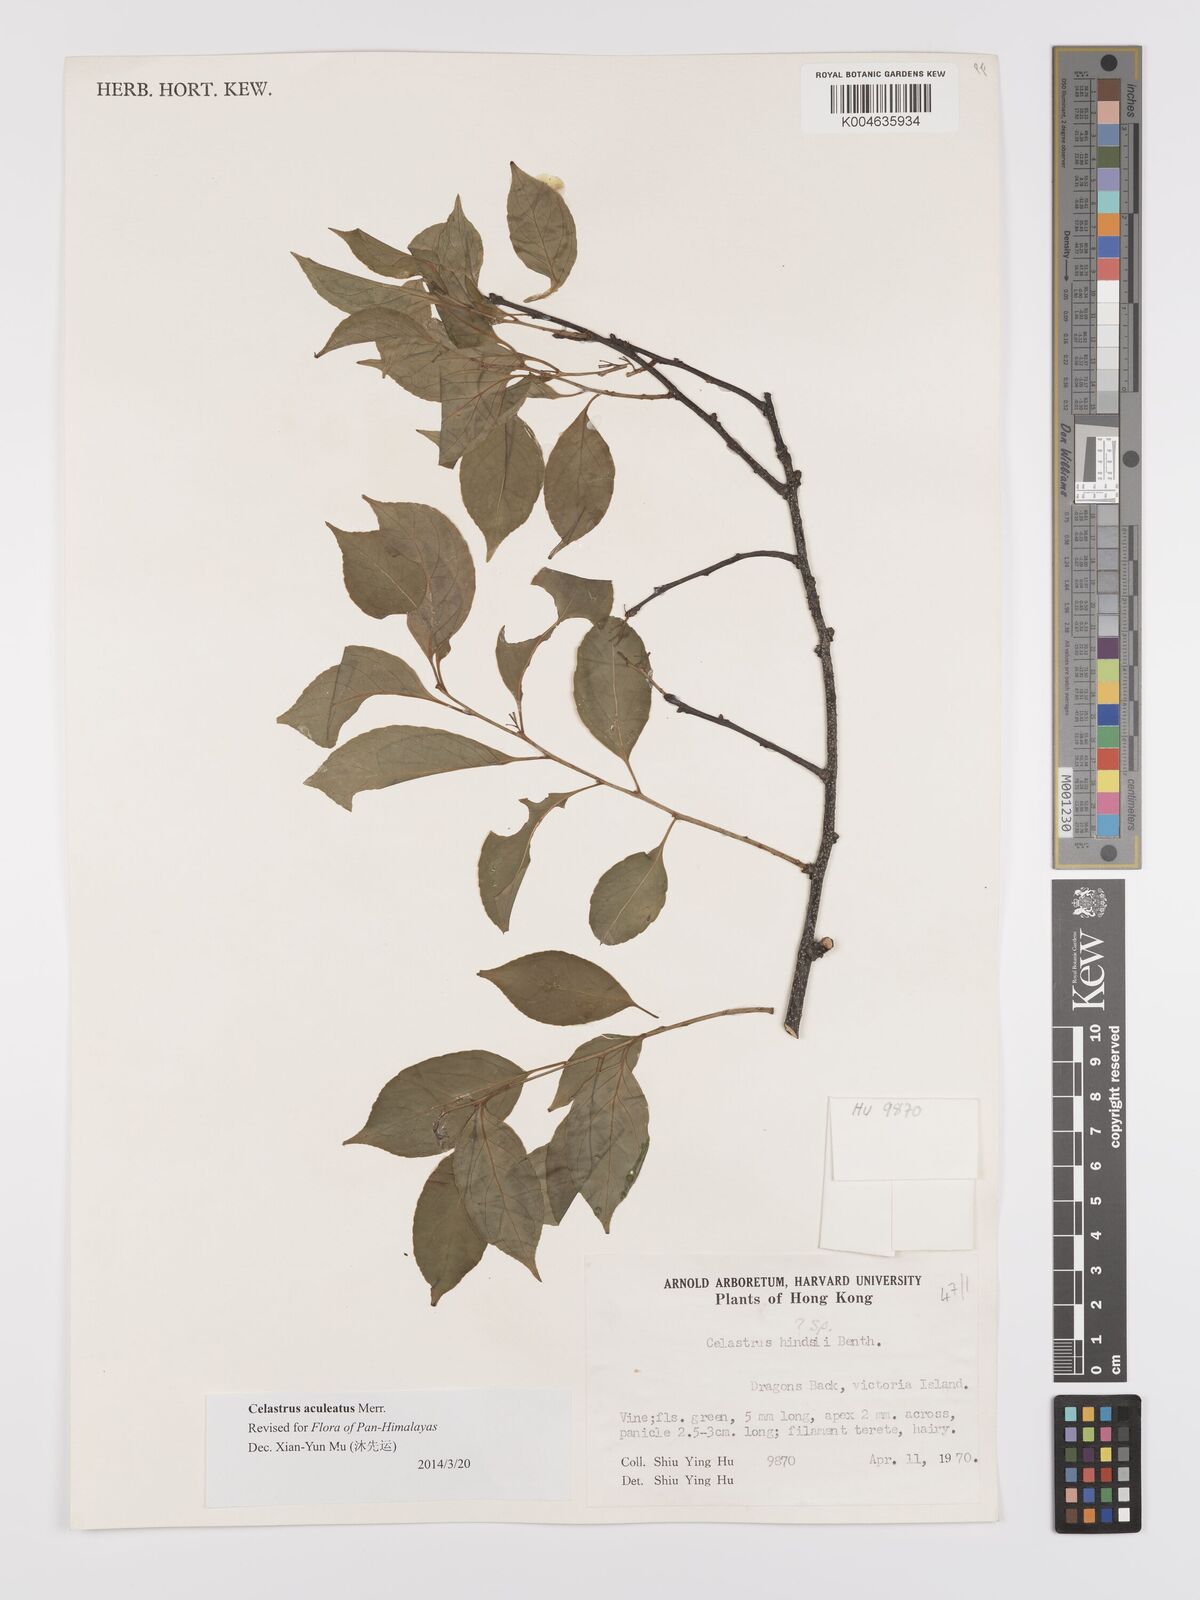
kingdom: Plantae
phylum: Tracheophyta
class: Magnoliopsida
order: Celastrales
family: Celastraceae
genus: Celastrus
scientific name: Celastrus hindsii
